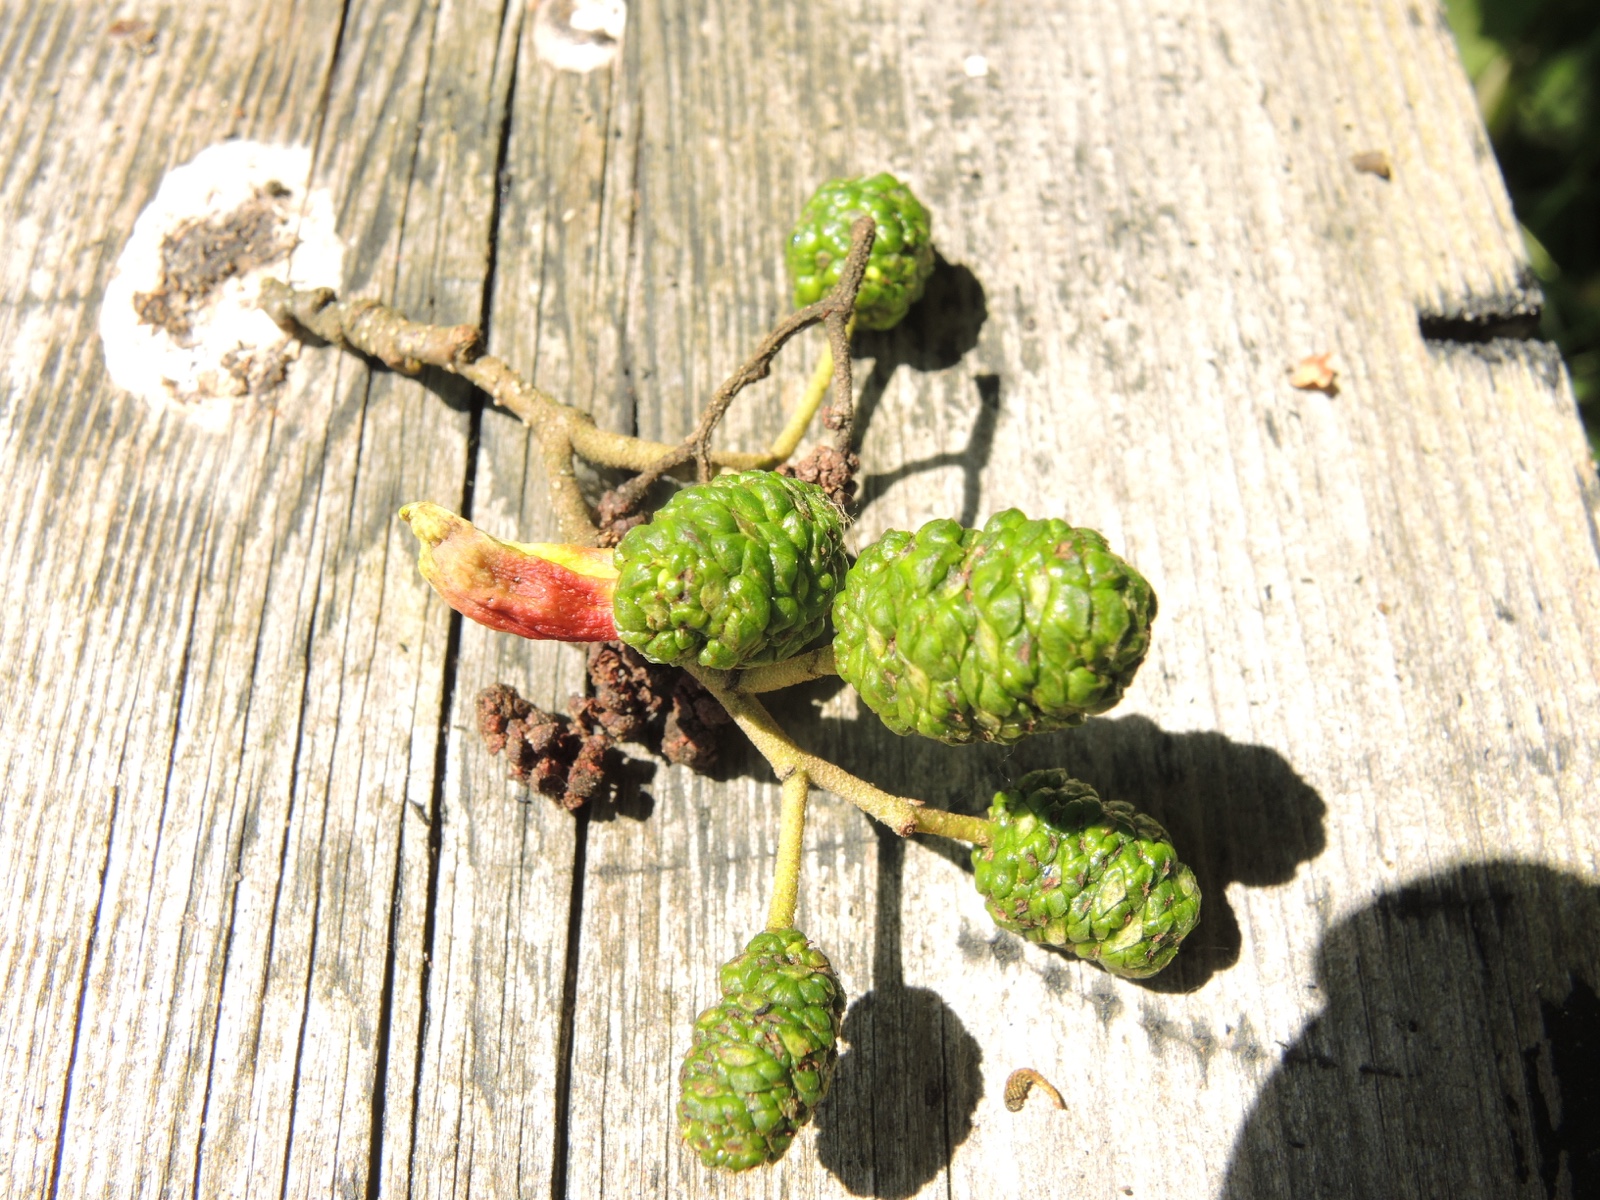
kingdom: Fungi
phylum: Ascomycota
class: Taphrinomycetes
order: Taphrinales
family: Taphrinaceae
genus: Taphrina
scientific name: Taphrina alni
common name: Alder tongue
